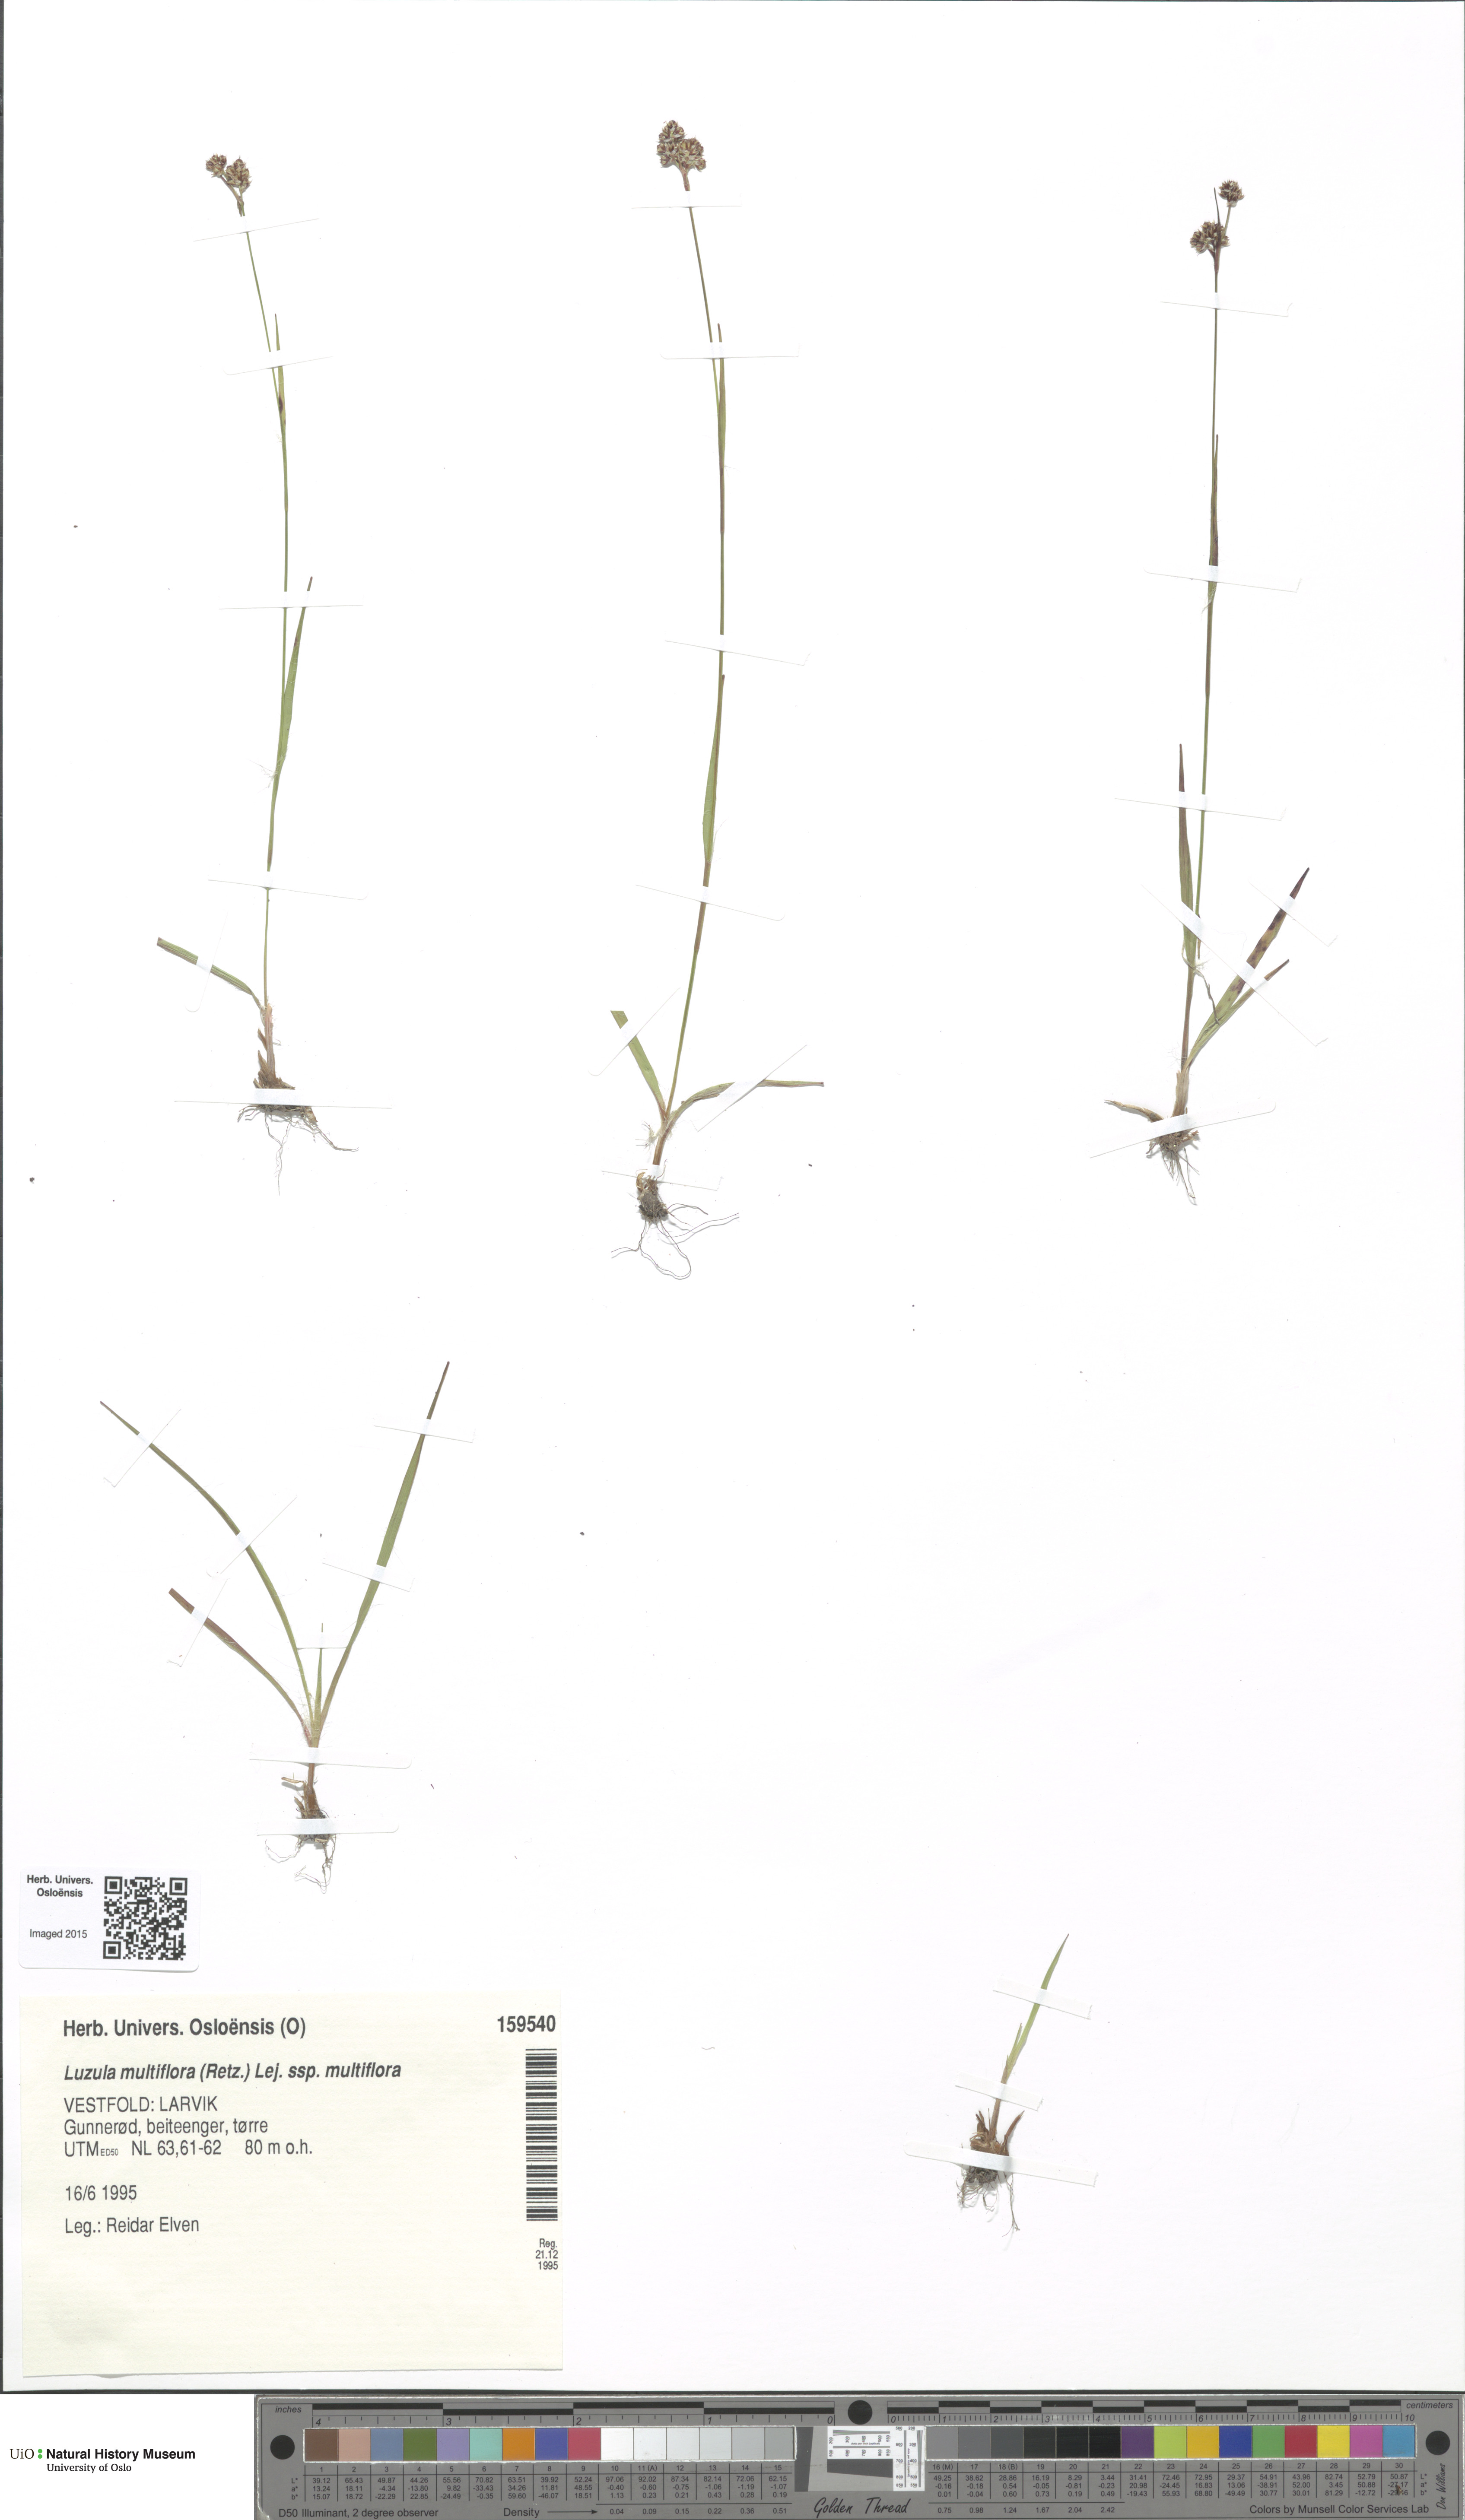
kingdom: Plantae
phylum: Tracheophyta
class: Liliopsida
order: Poales
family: Juncaceae
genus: Luzula
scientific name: Luzula multiflora
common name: Heath wood-rush
